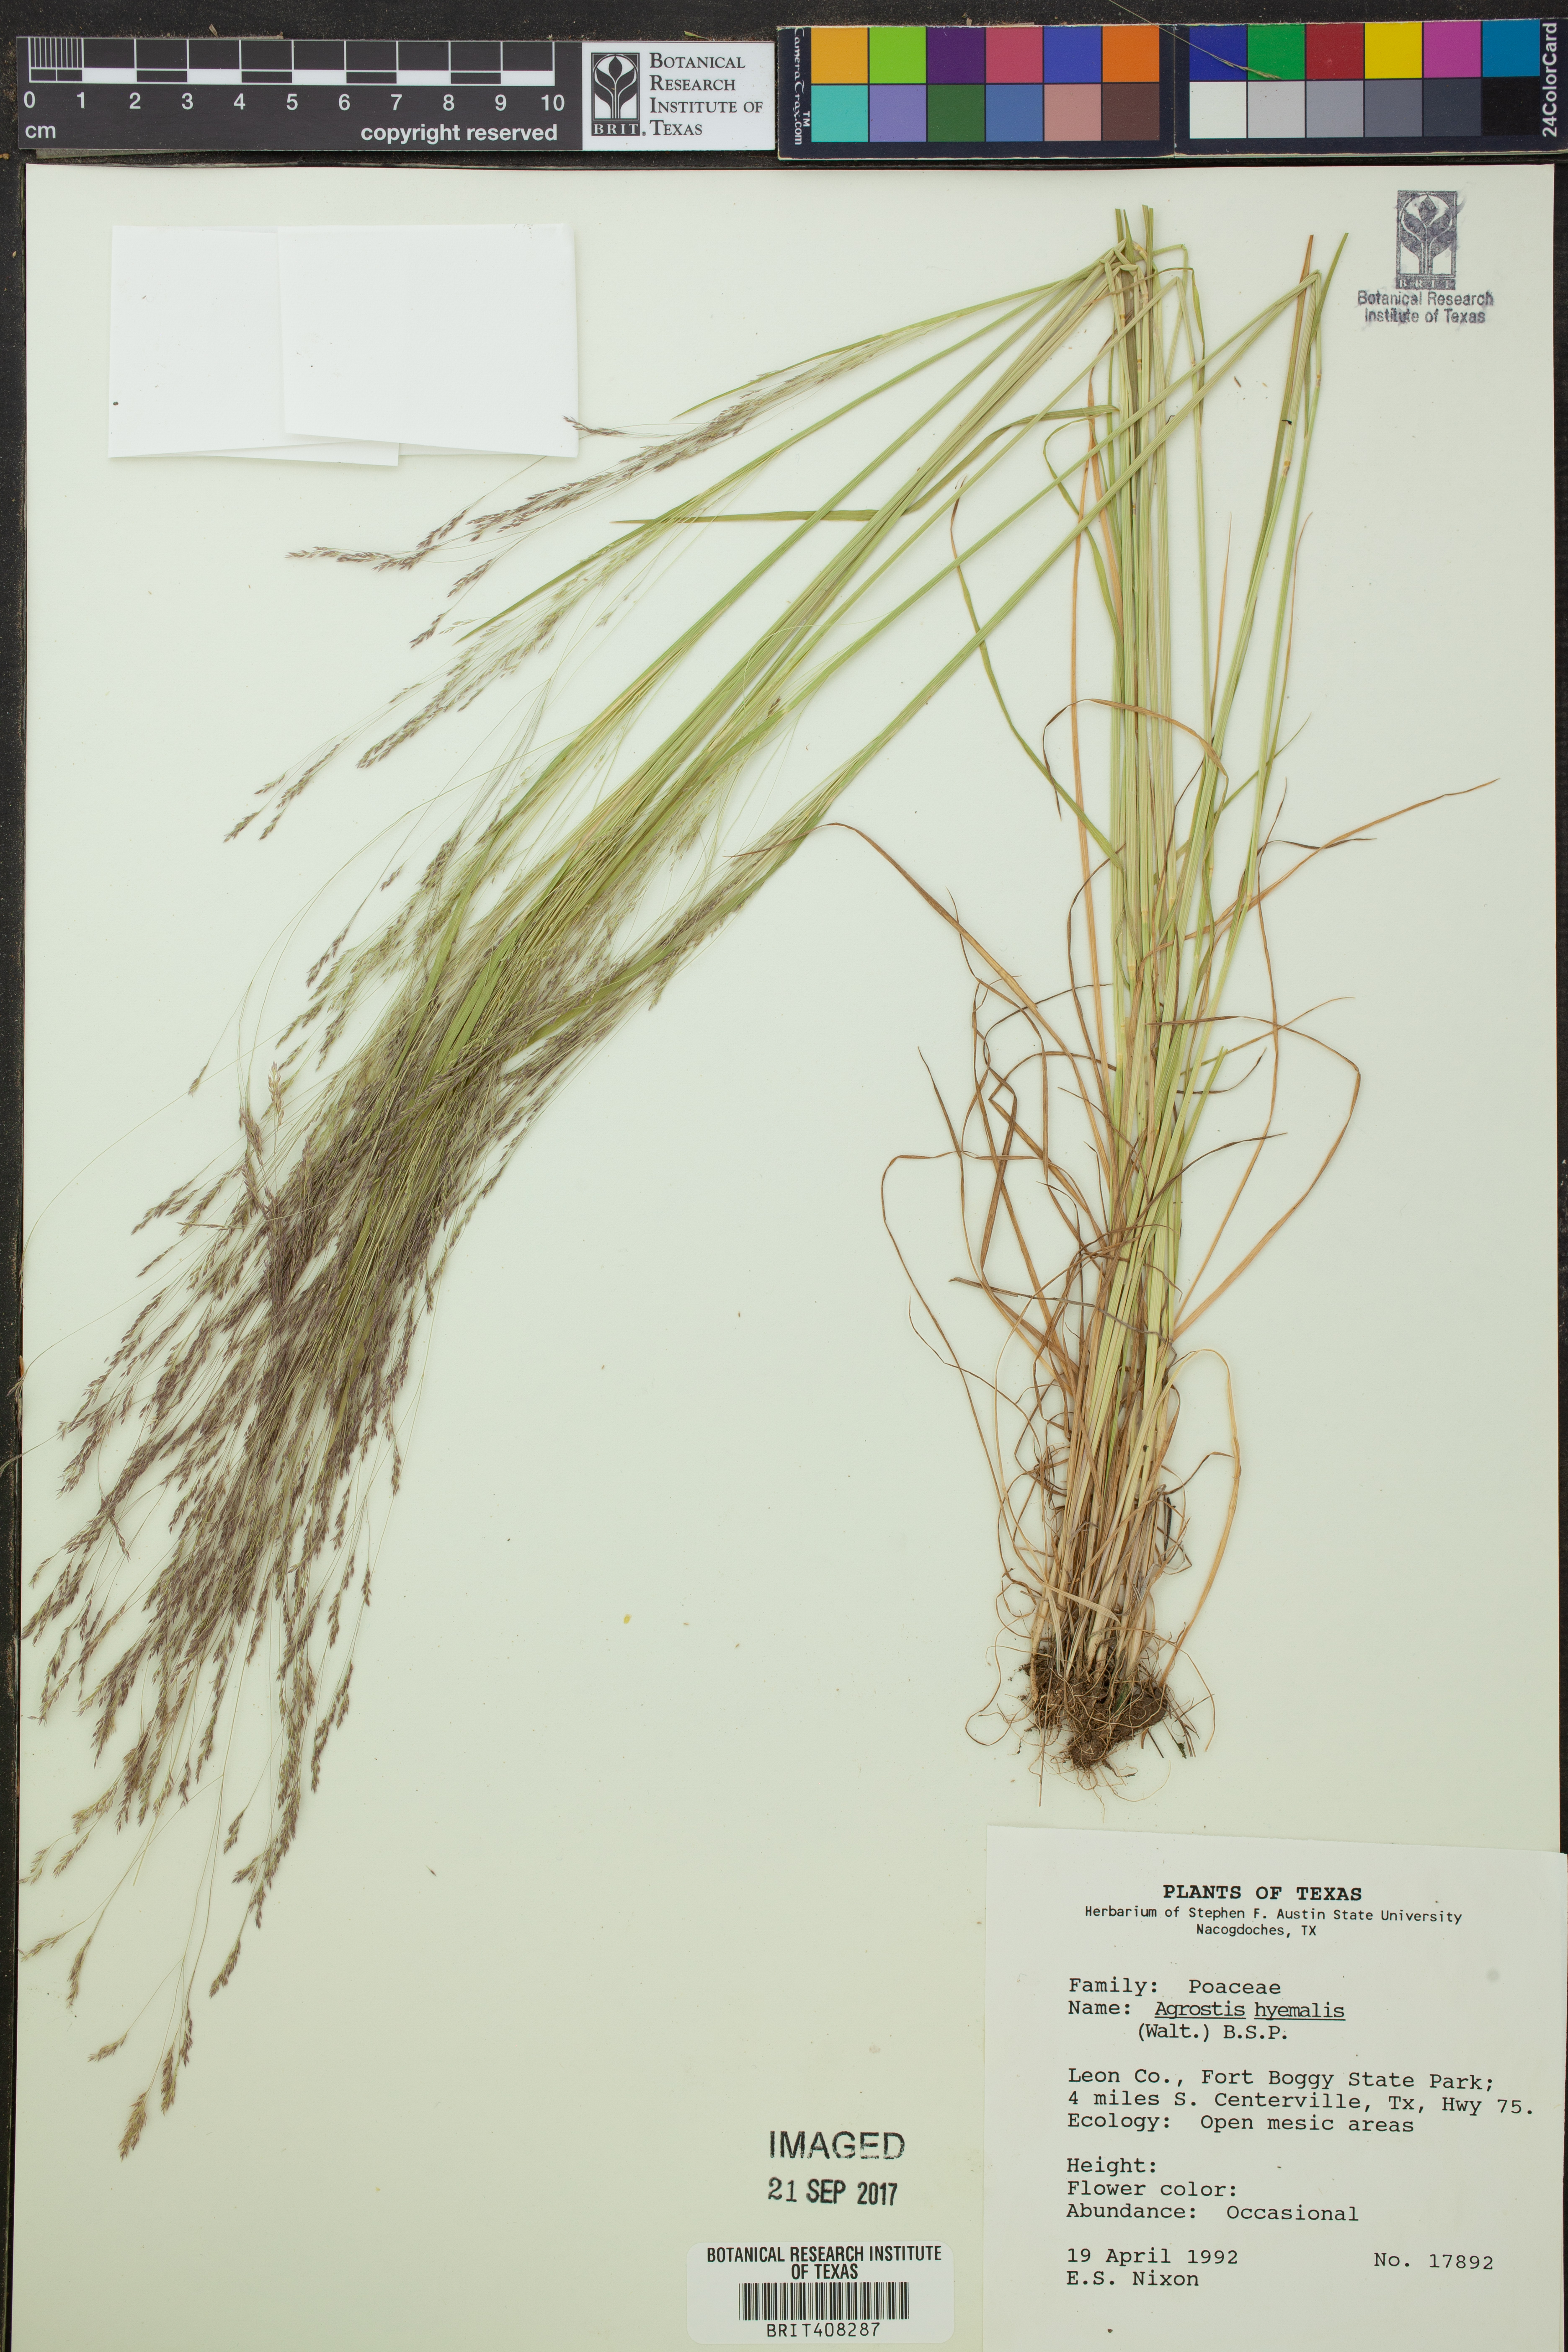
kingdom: Plantae
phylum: Tracheophyta
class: Liliopsida
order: Poales
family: Poaceae
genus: Agrostis
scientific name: Agrostis hyemalis
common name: Small bent
